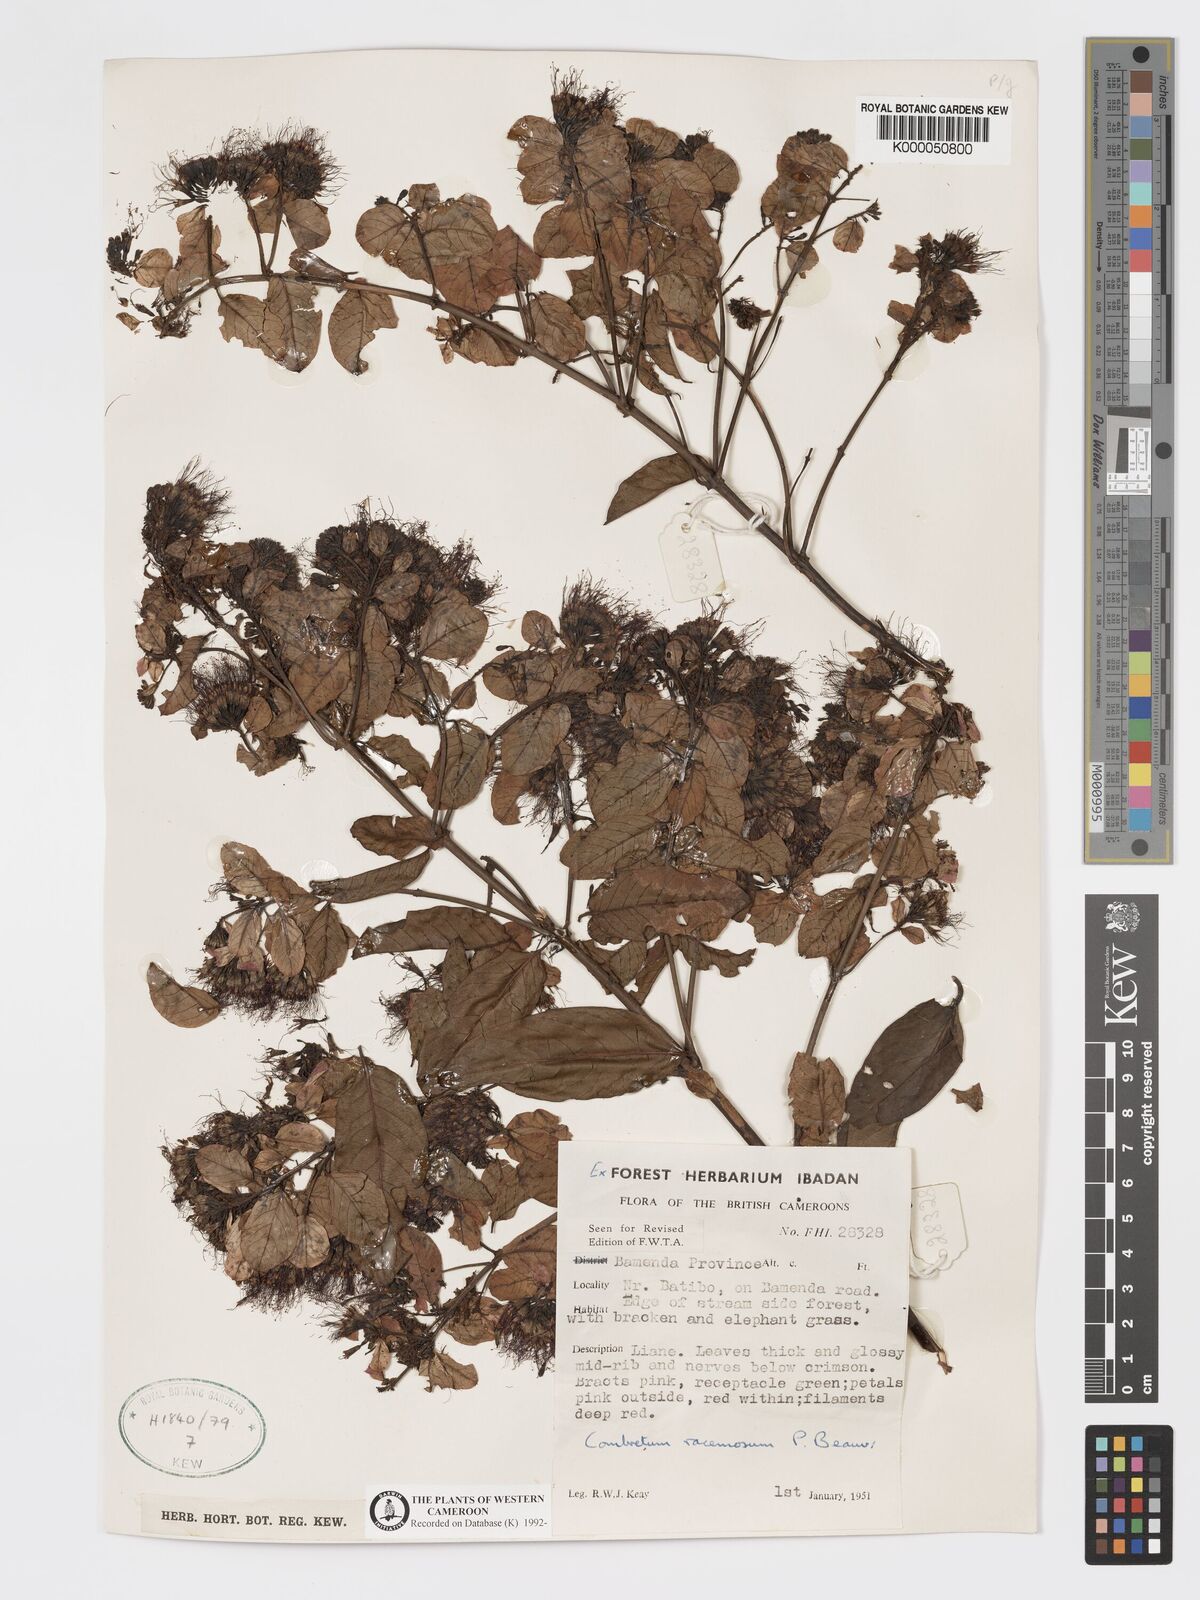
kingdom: Plantae
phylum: Tracheophyta
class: Magnoliopsida
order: Myrtales
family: Combretaceae
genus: Combretum
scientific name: Combretum racemosum
